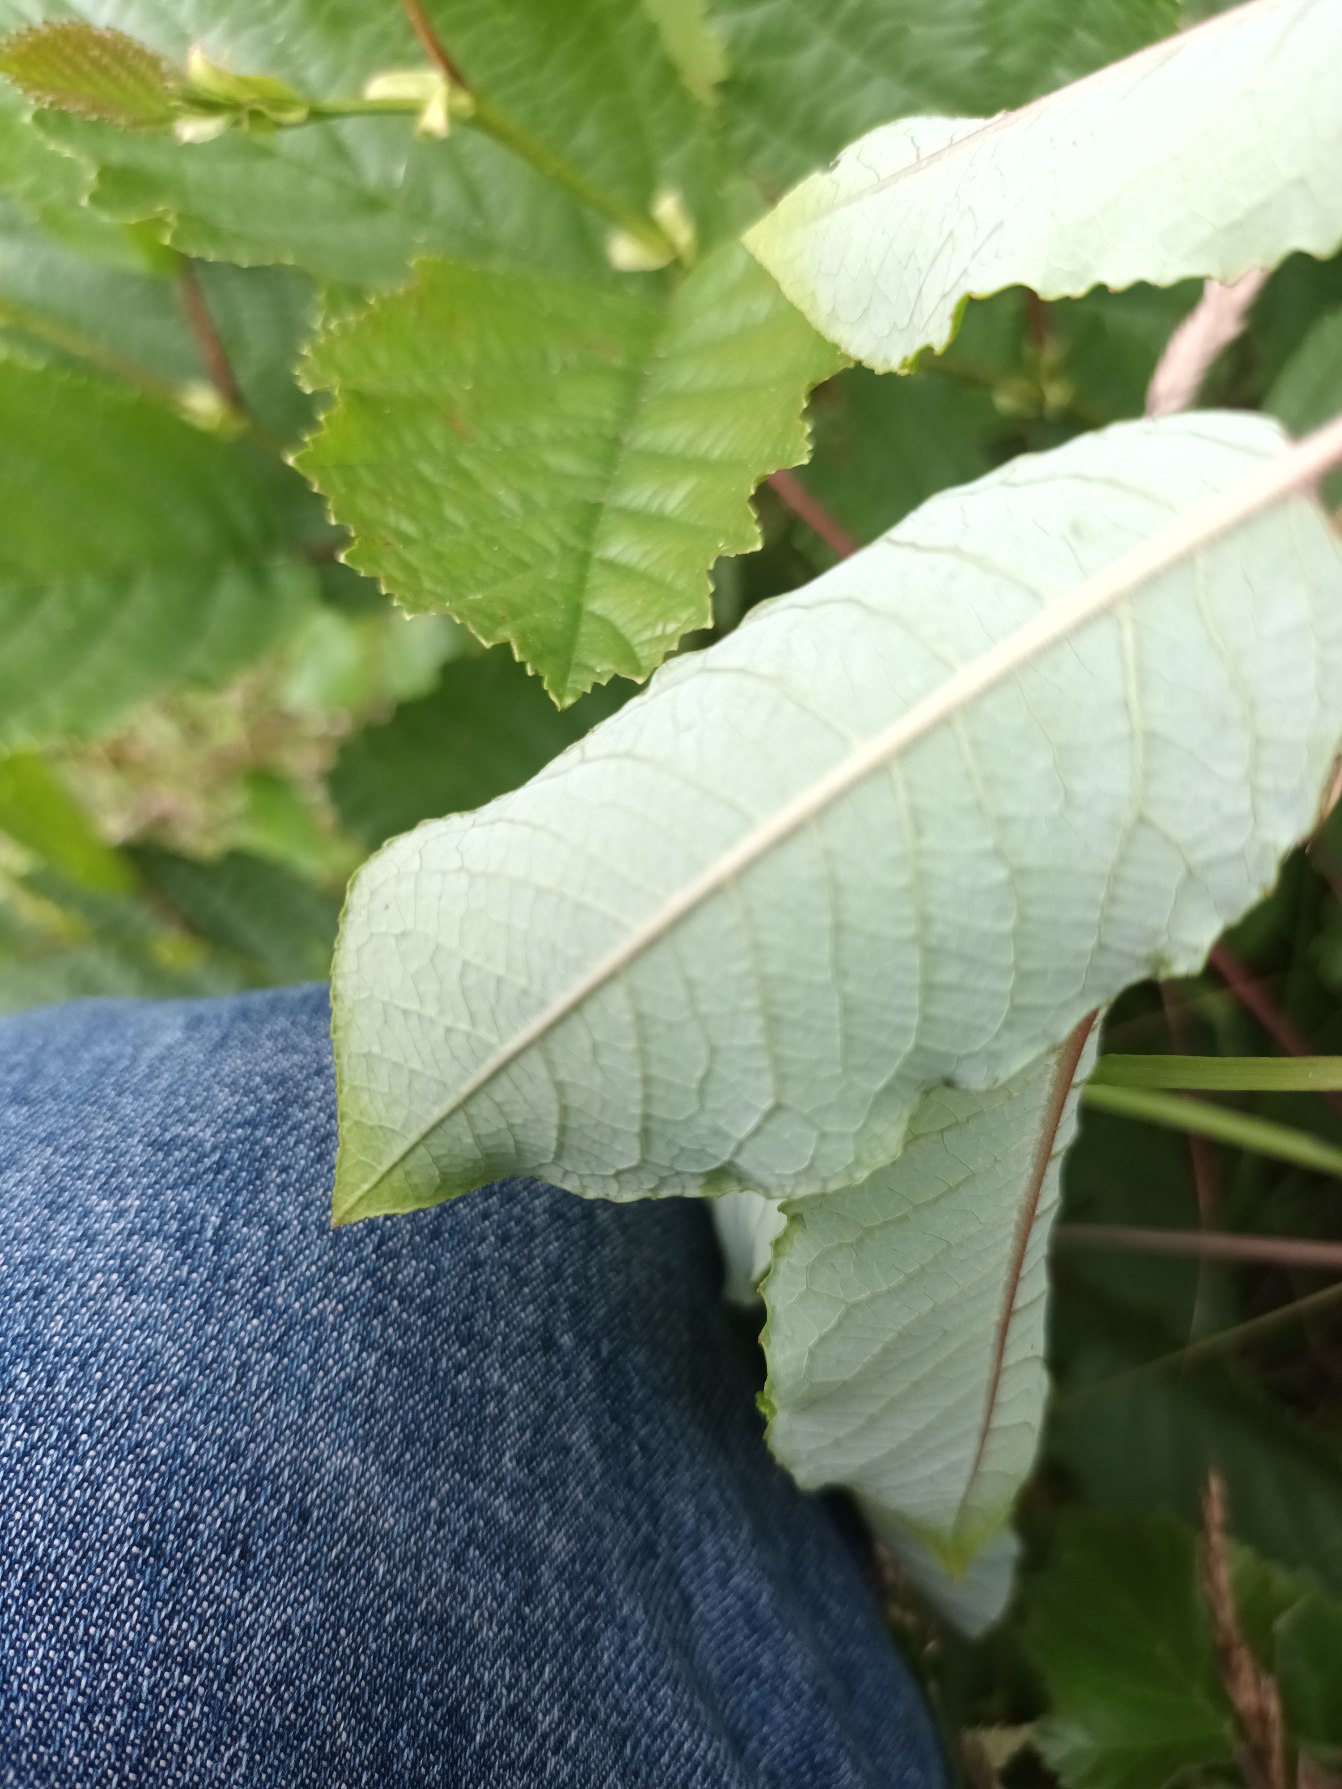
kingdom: Plantae
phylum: Tracheophyta
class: Magnoliopsida
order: Malpighiales
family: Salicaceae
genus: Salix
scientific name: Salix myrsinifolia
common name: Sort pil
